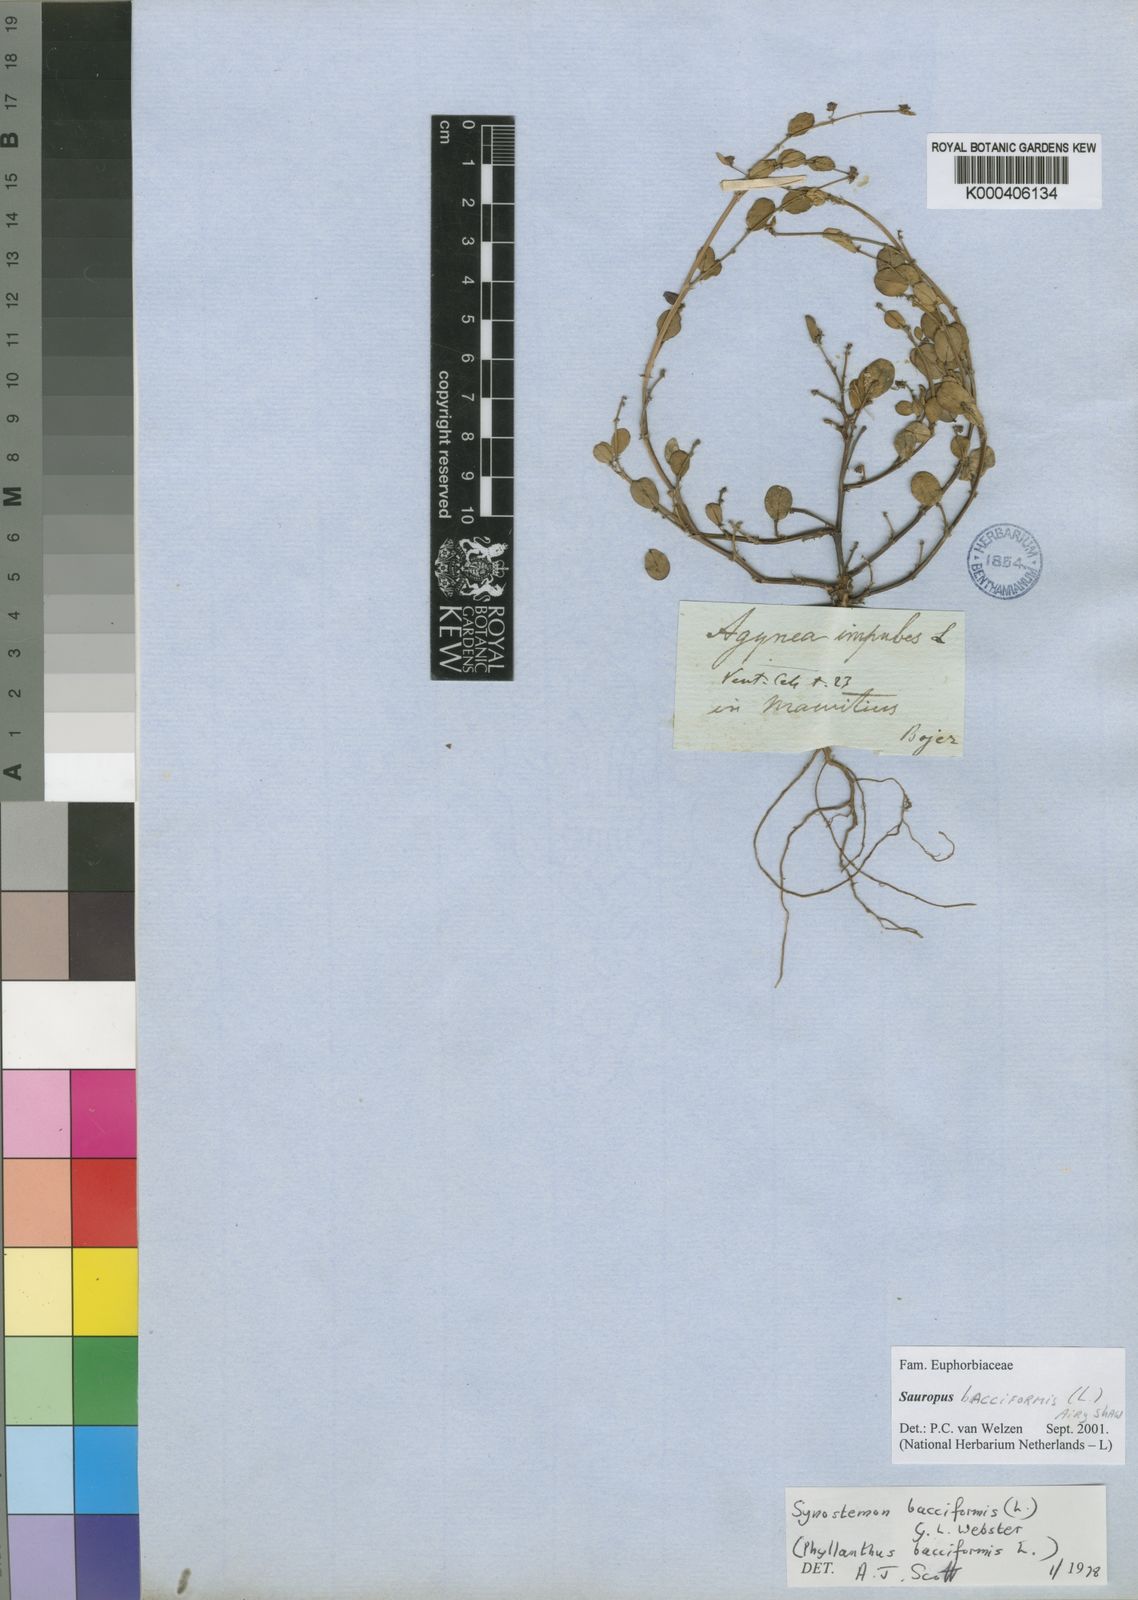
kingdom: Plantae
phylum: Tracheophyta
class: Magnoliopsida
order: Malpighiales
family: Phyllanthaceae
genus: Synostemon
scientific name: Synostemon bacciformis
